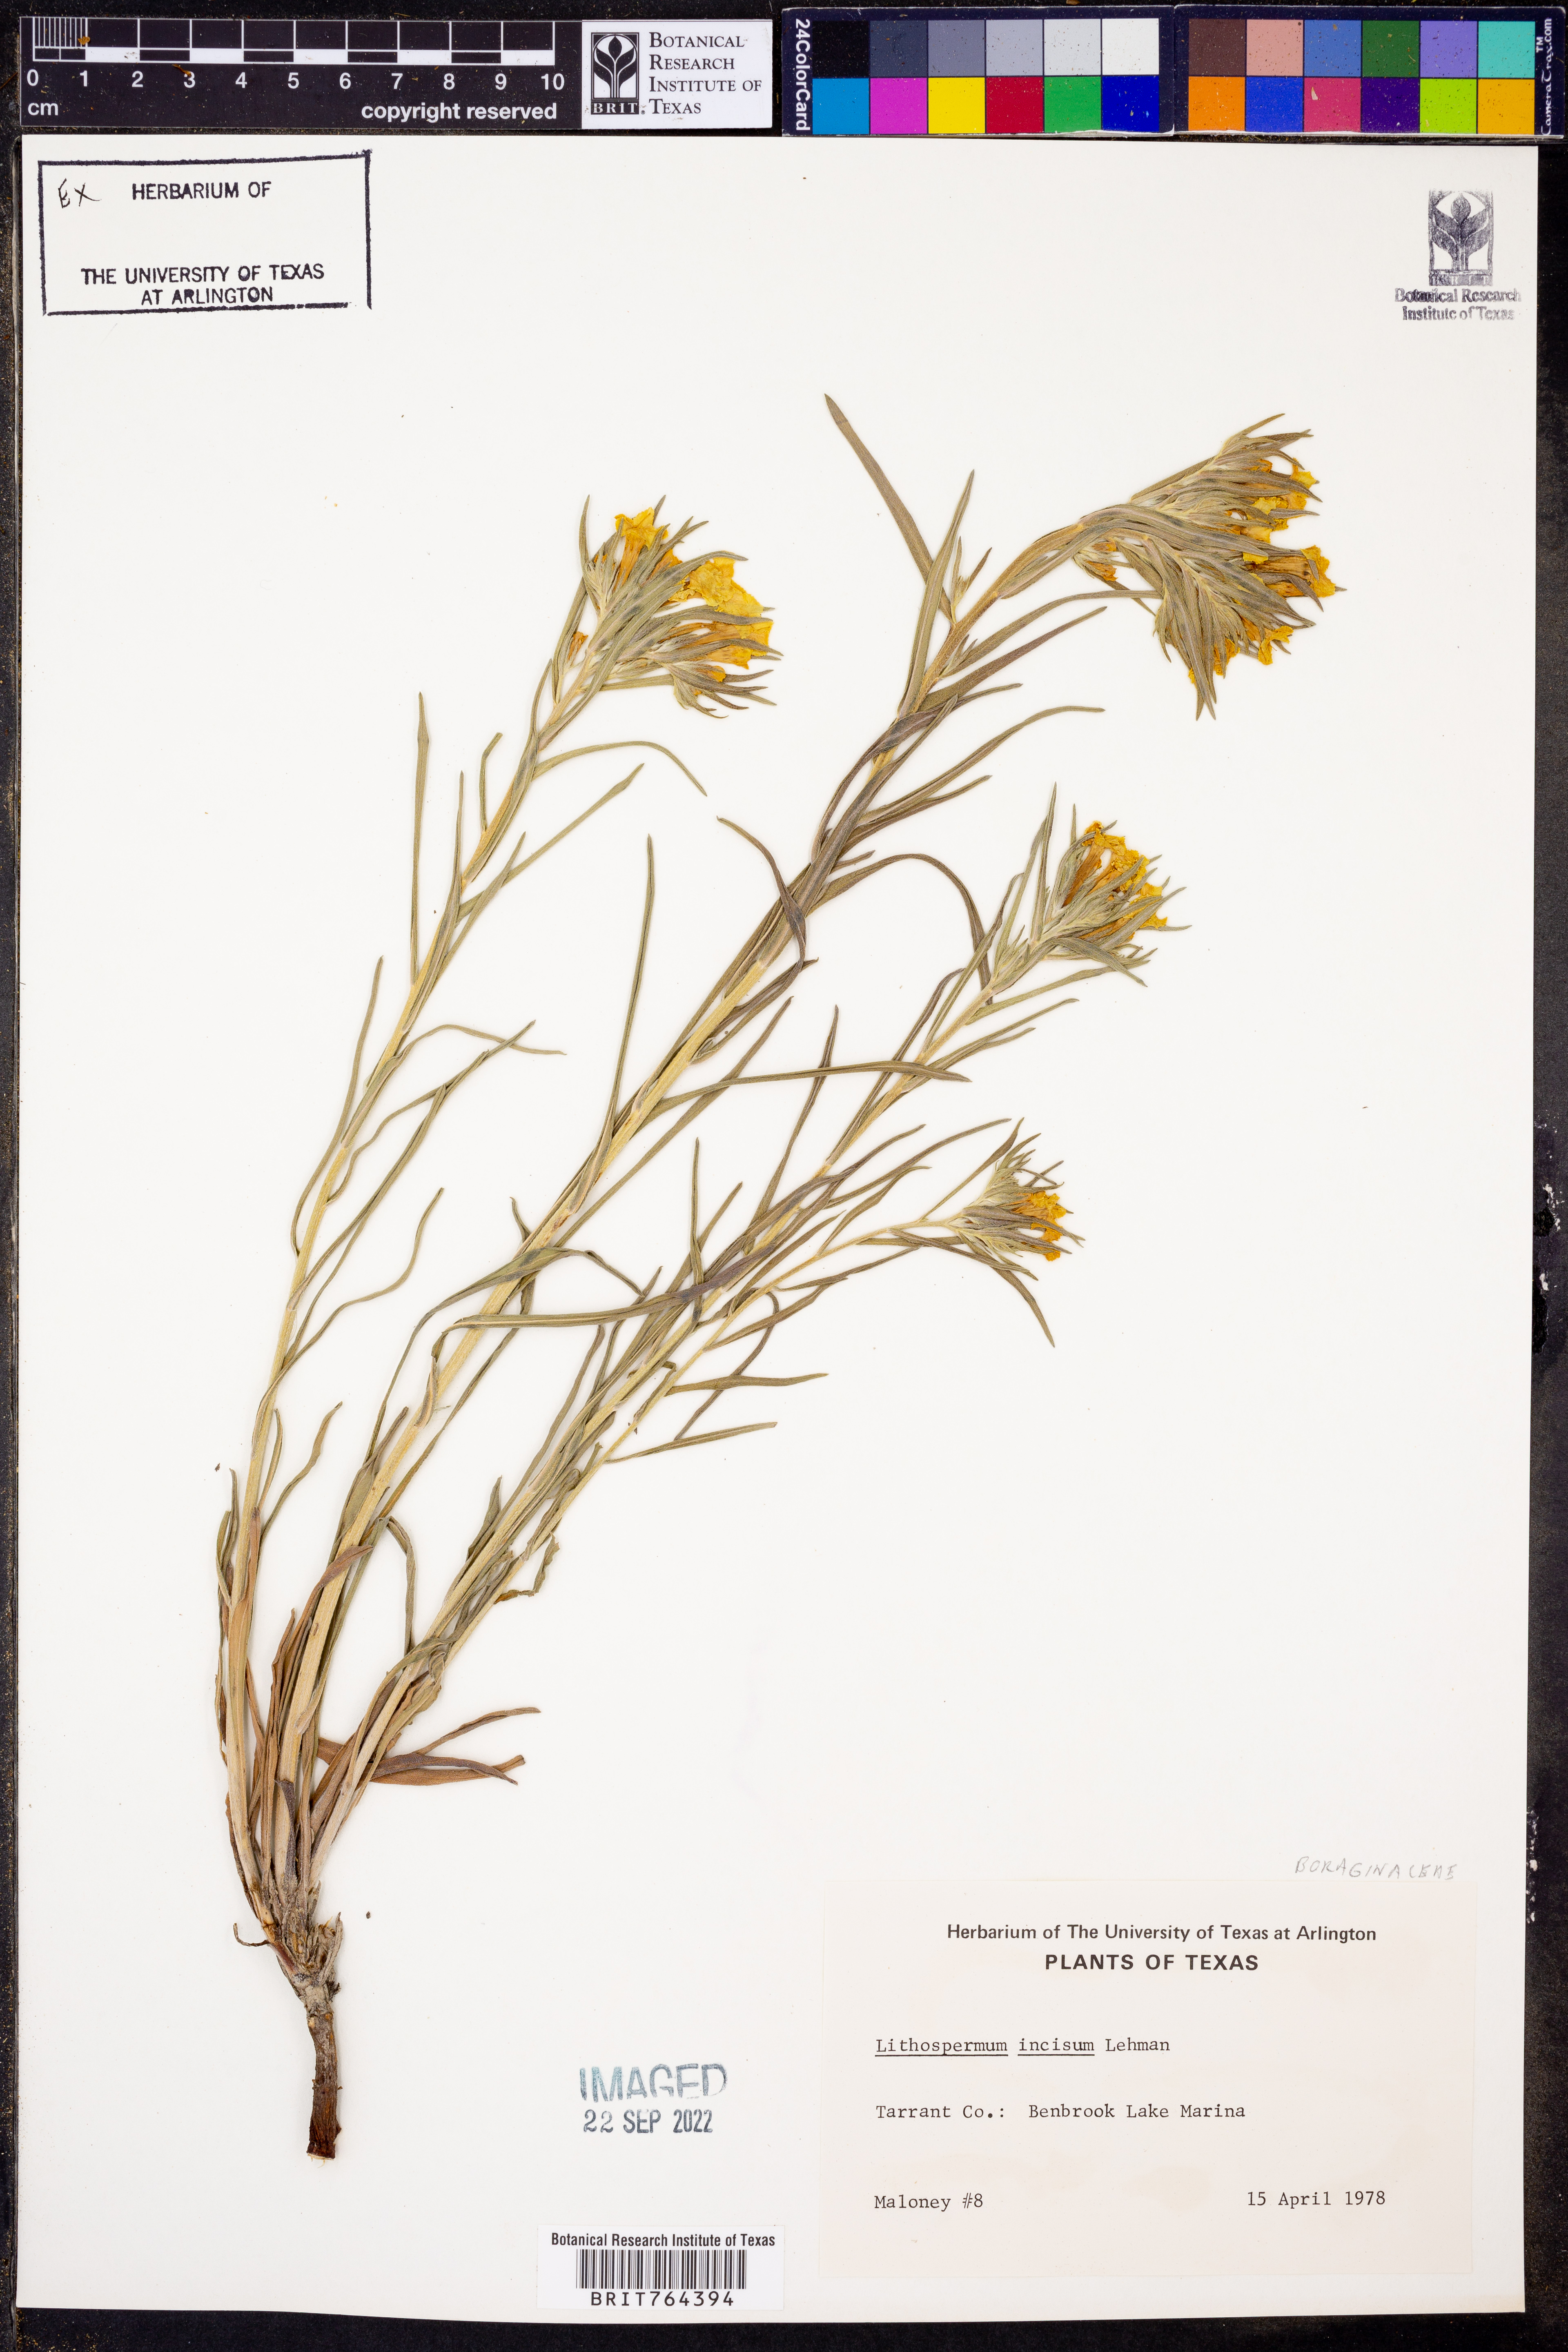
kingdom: Plantae
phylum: Tracheophyta
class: Magnoliopsida
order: Boraginales
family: Boraginaceae
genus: Lithospermum
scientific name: Lithospermum incisum
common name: Fringed gromwell
